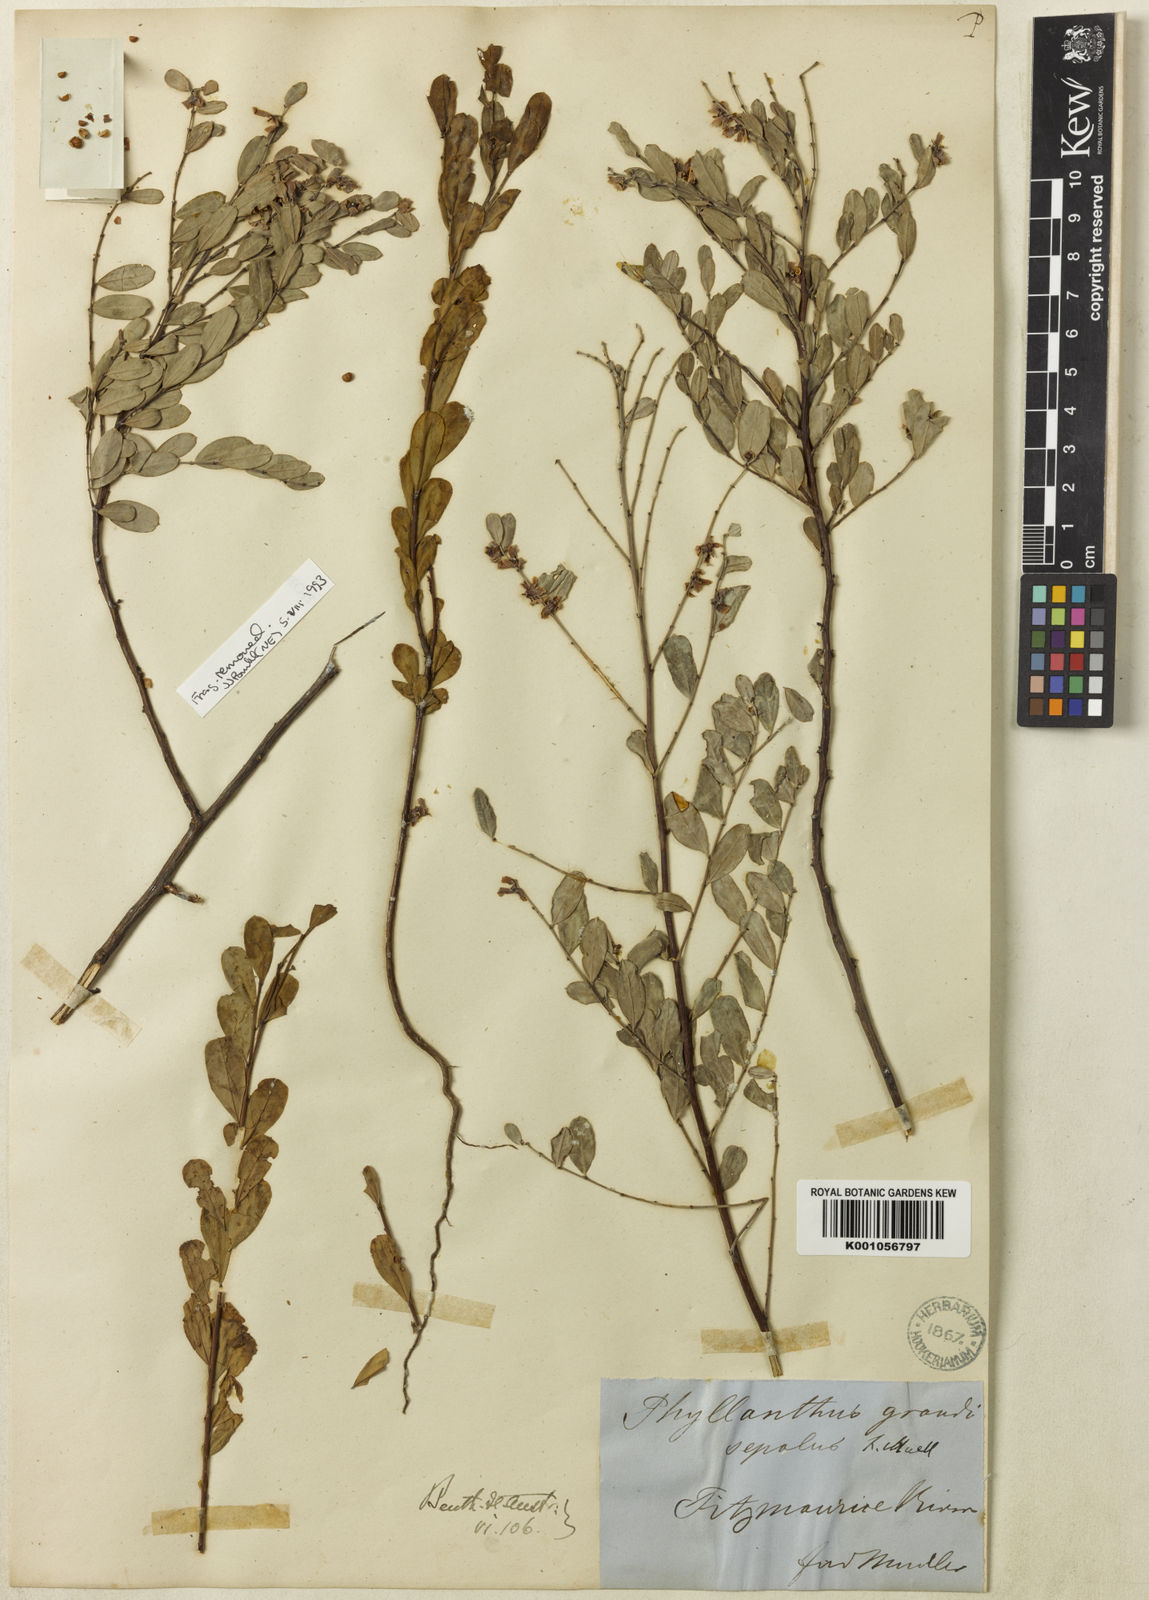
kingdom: Plantae
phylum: Tracheophyta
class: Magnoliopsida
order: Malpighiales
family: Phyllanthaceae
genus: Phyllanthus
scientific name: Phyllanthus
